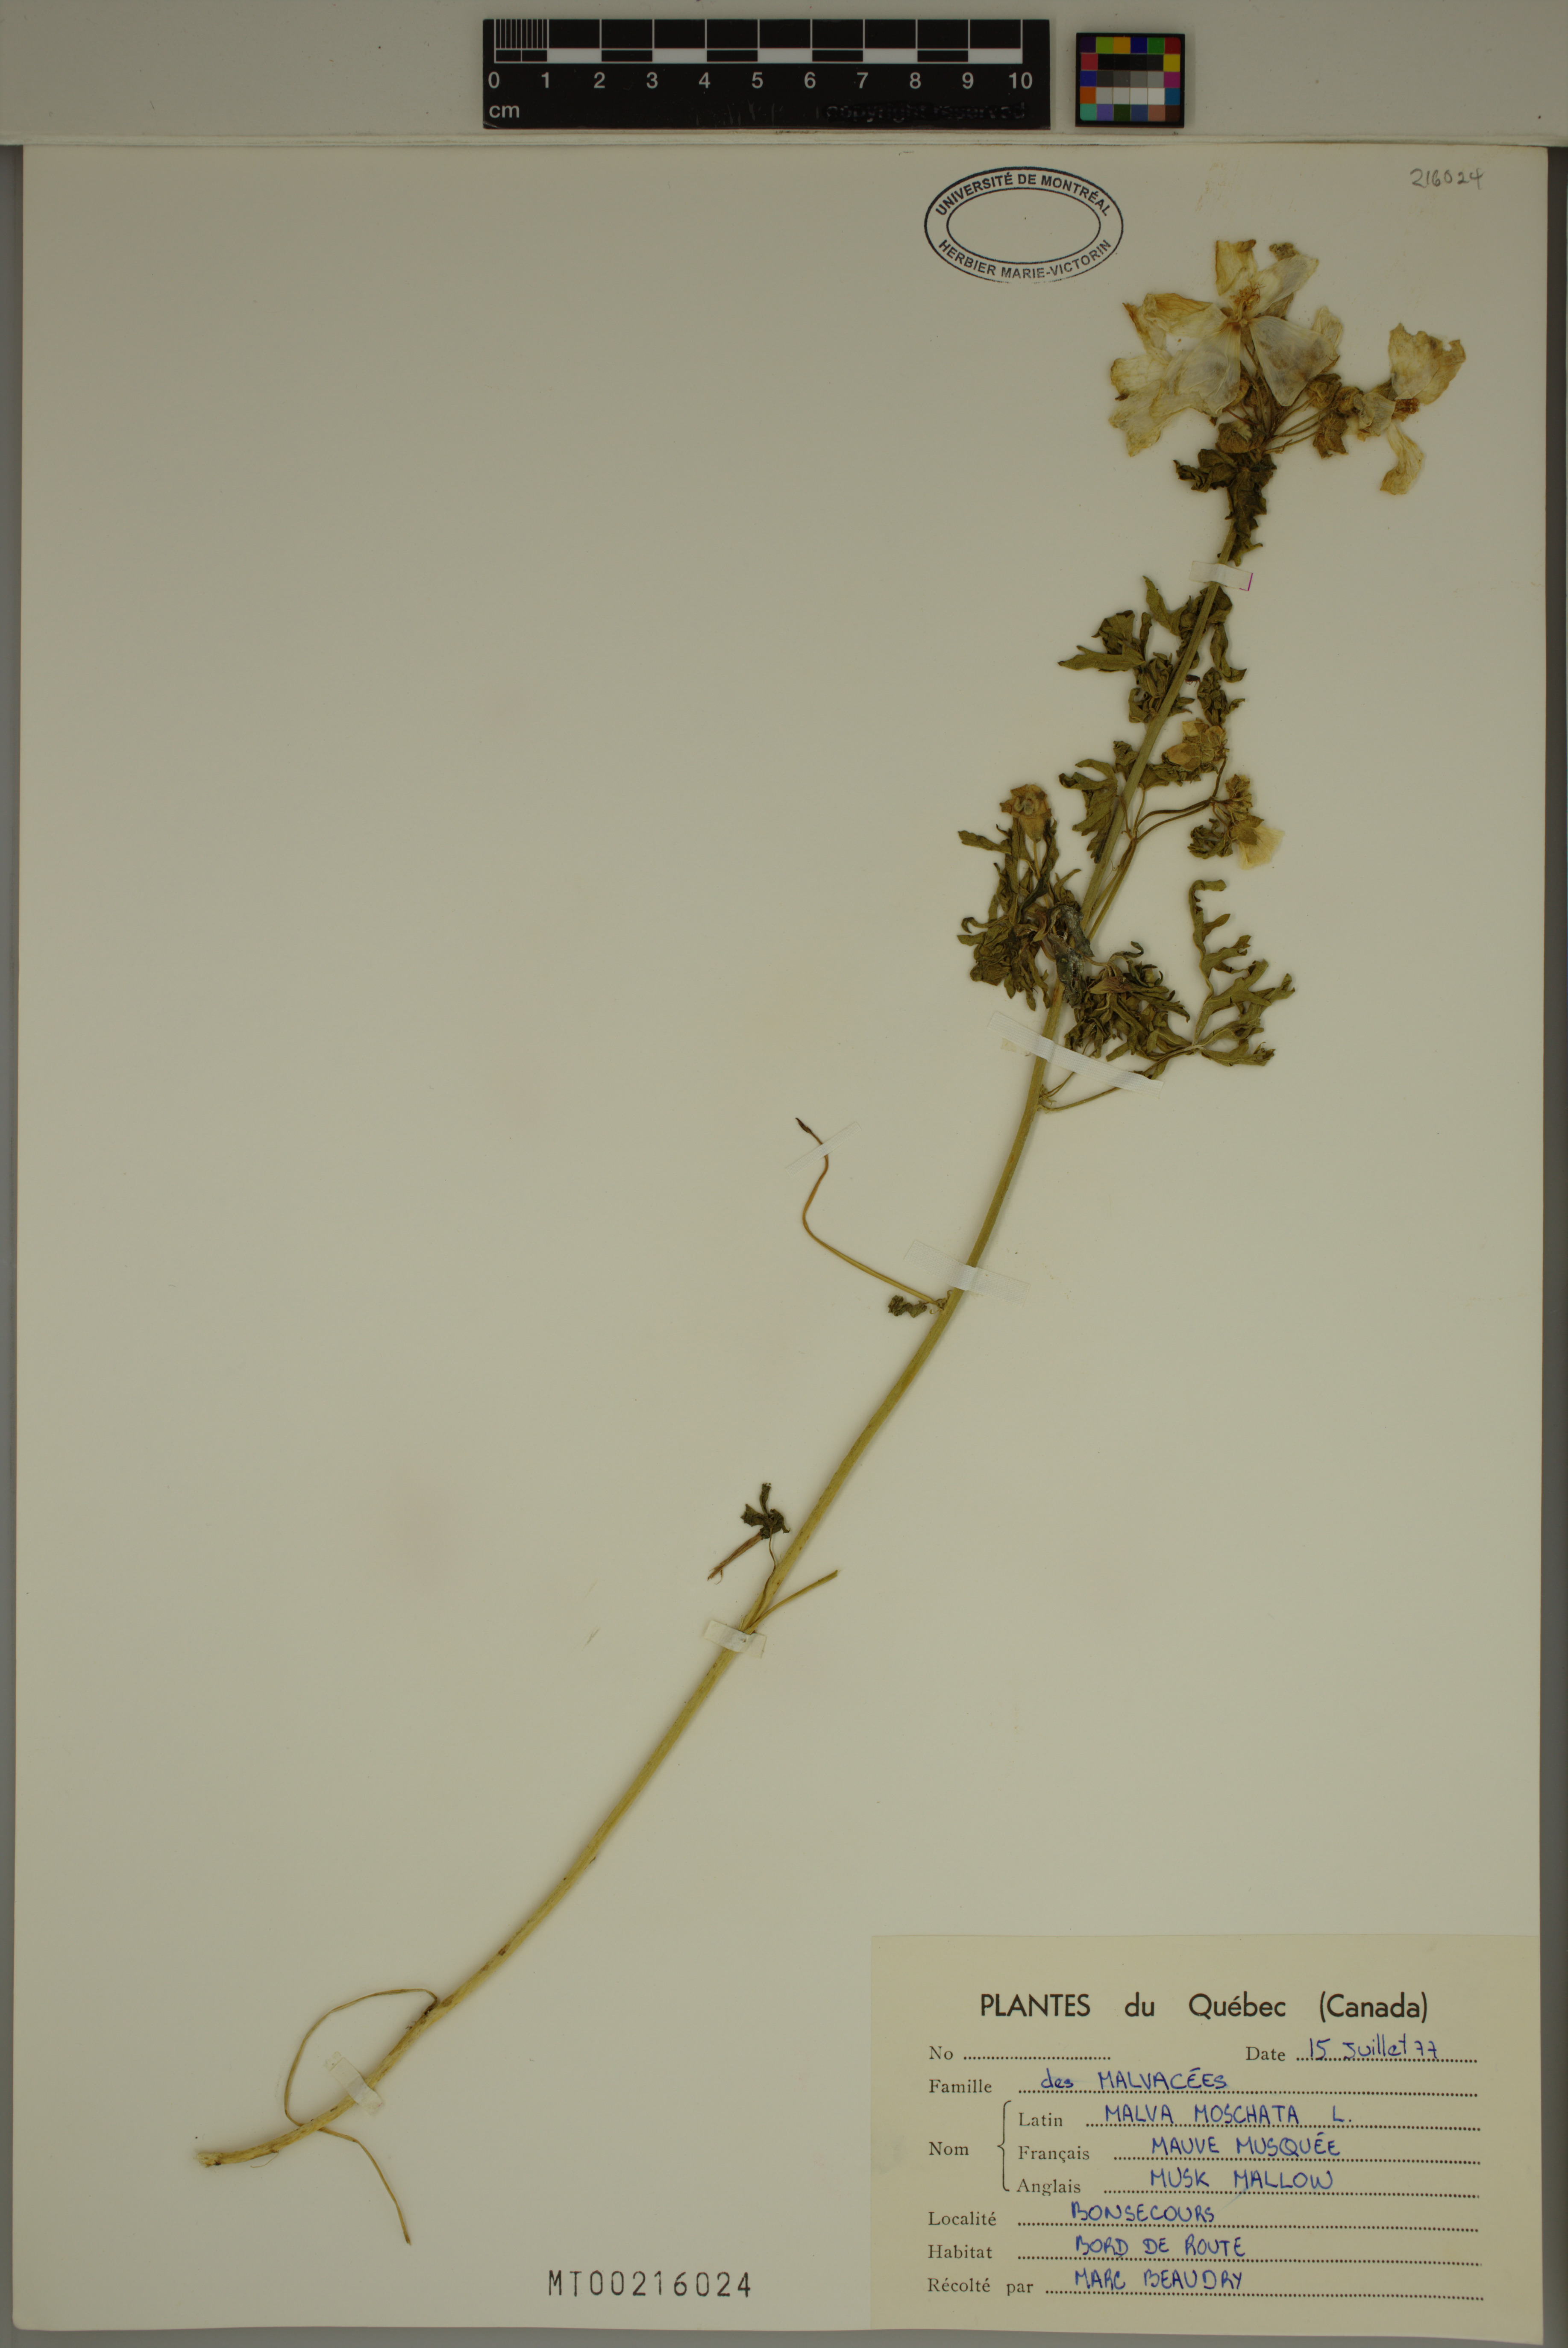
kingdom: Plantae
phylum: Tracheophyta
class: Magnoliopsida
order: Malvales
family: Malvaceae
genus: Malva
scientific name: Malva moschata
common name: Musk mallow
